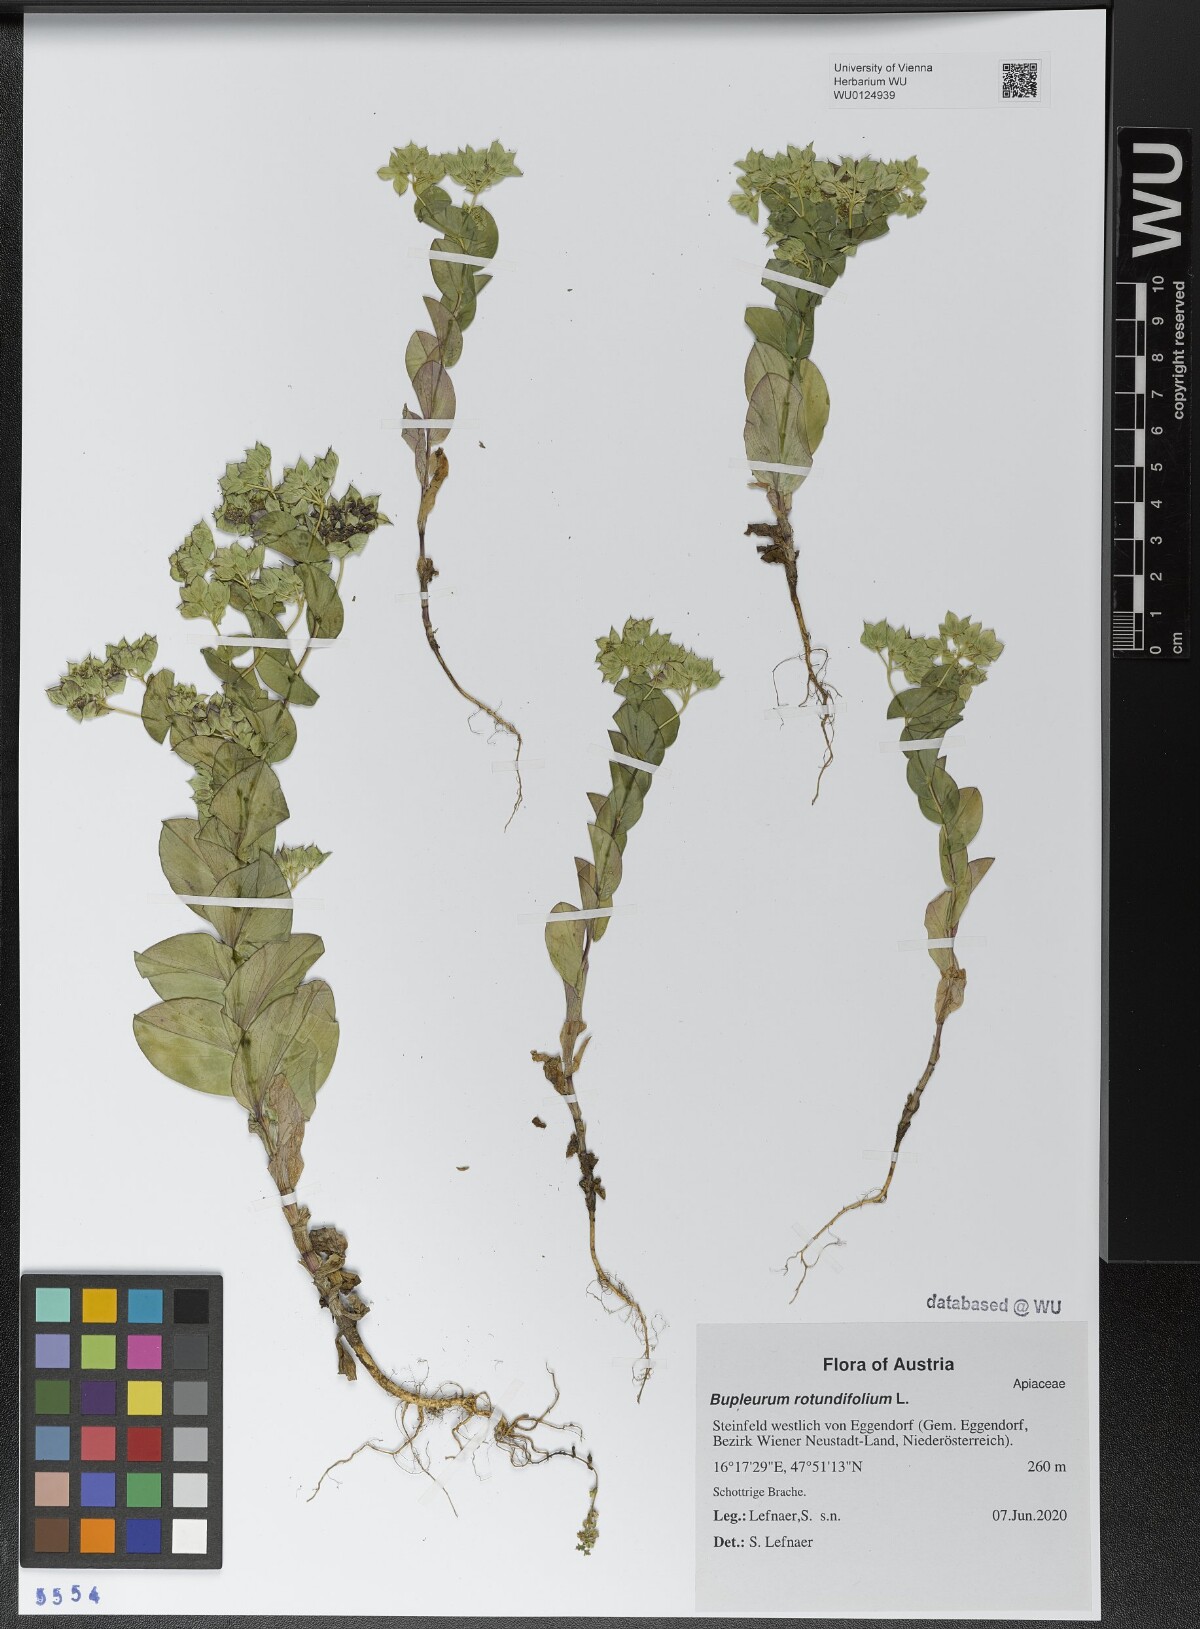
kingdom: Plantae
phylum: Tracheophyta
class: Magnoliopsida
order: Apiales
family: Apiaceae
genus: Bupleurum
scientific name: Bupleurum rotundifolium
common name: Thorow-wax
